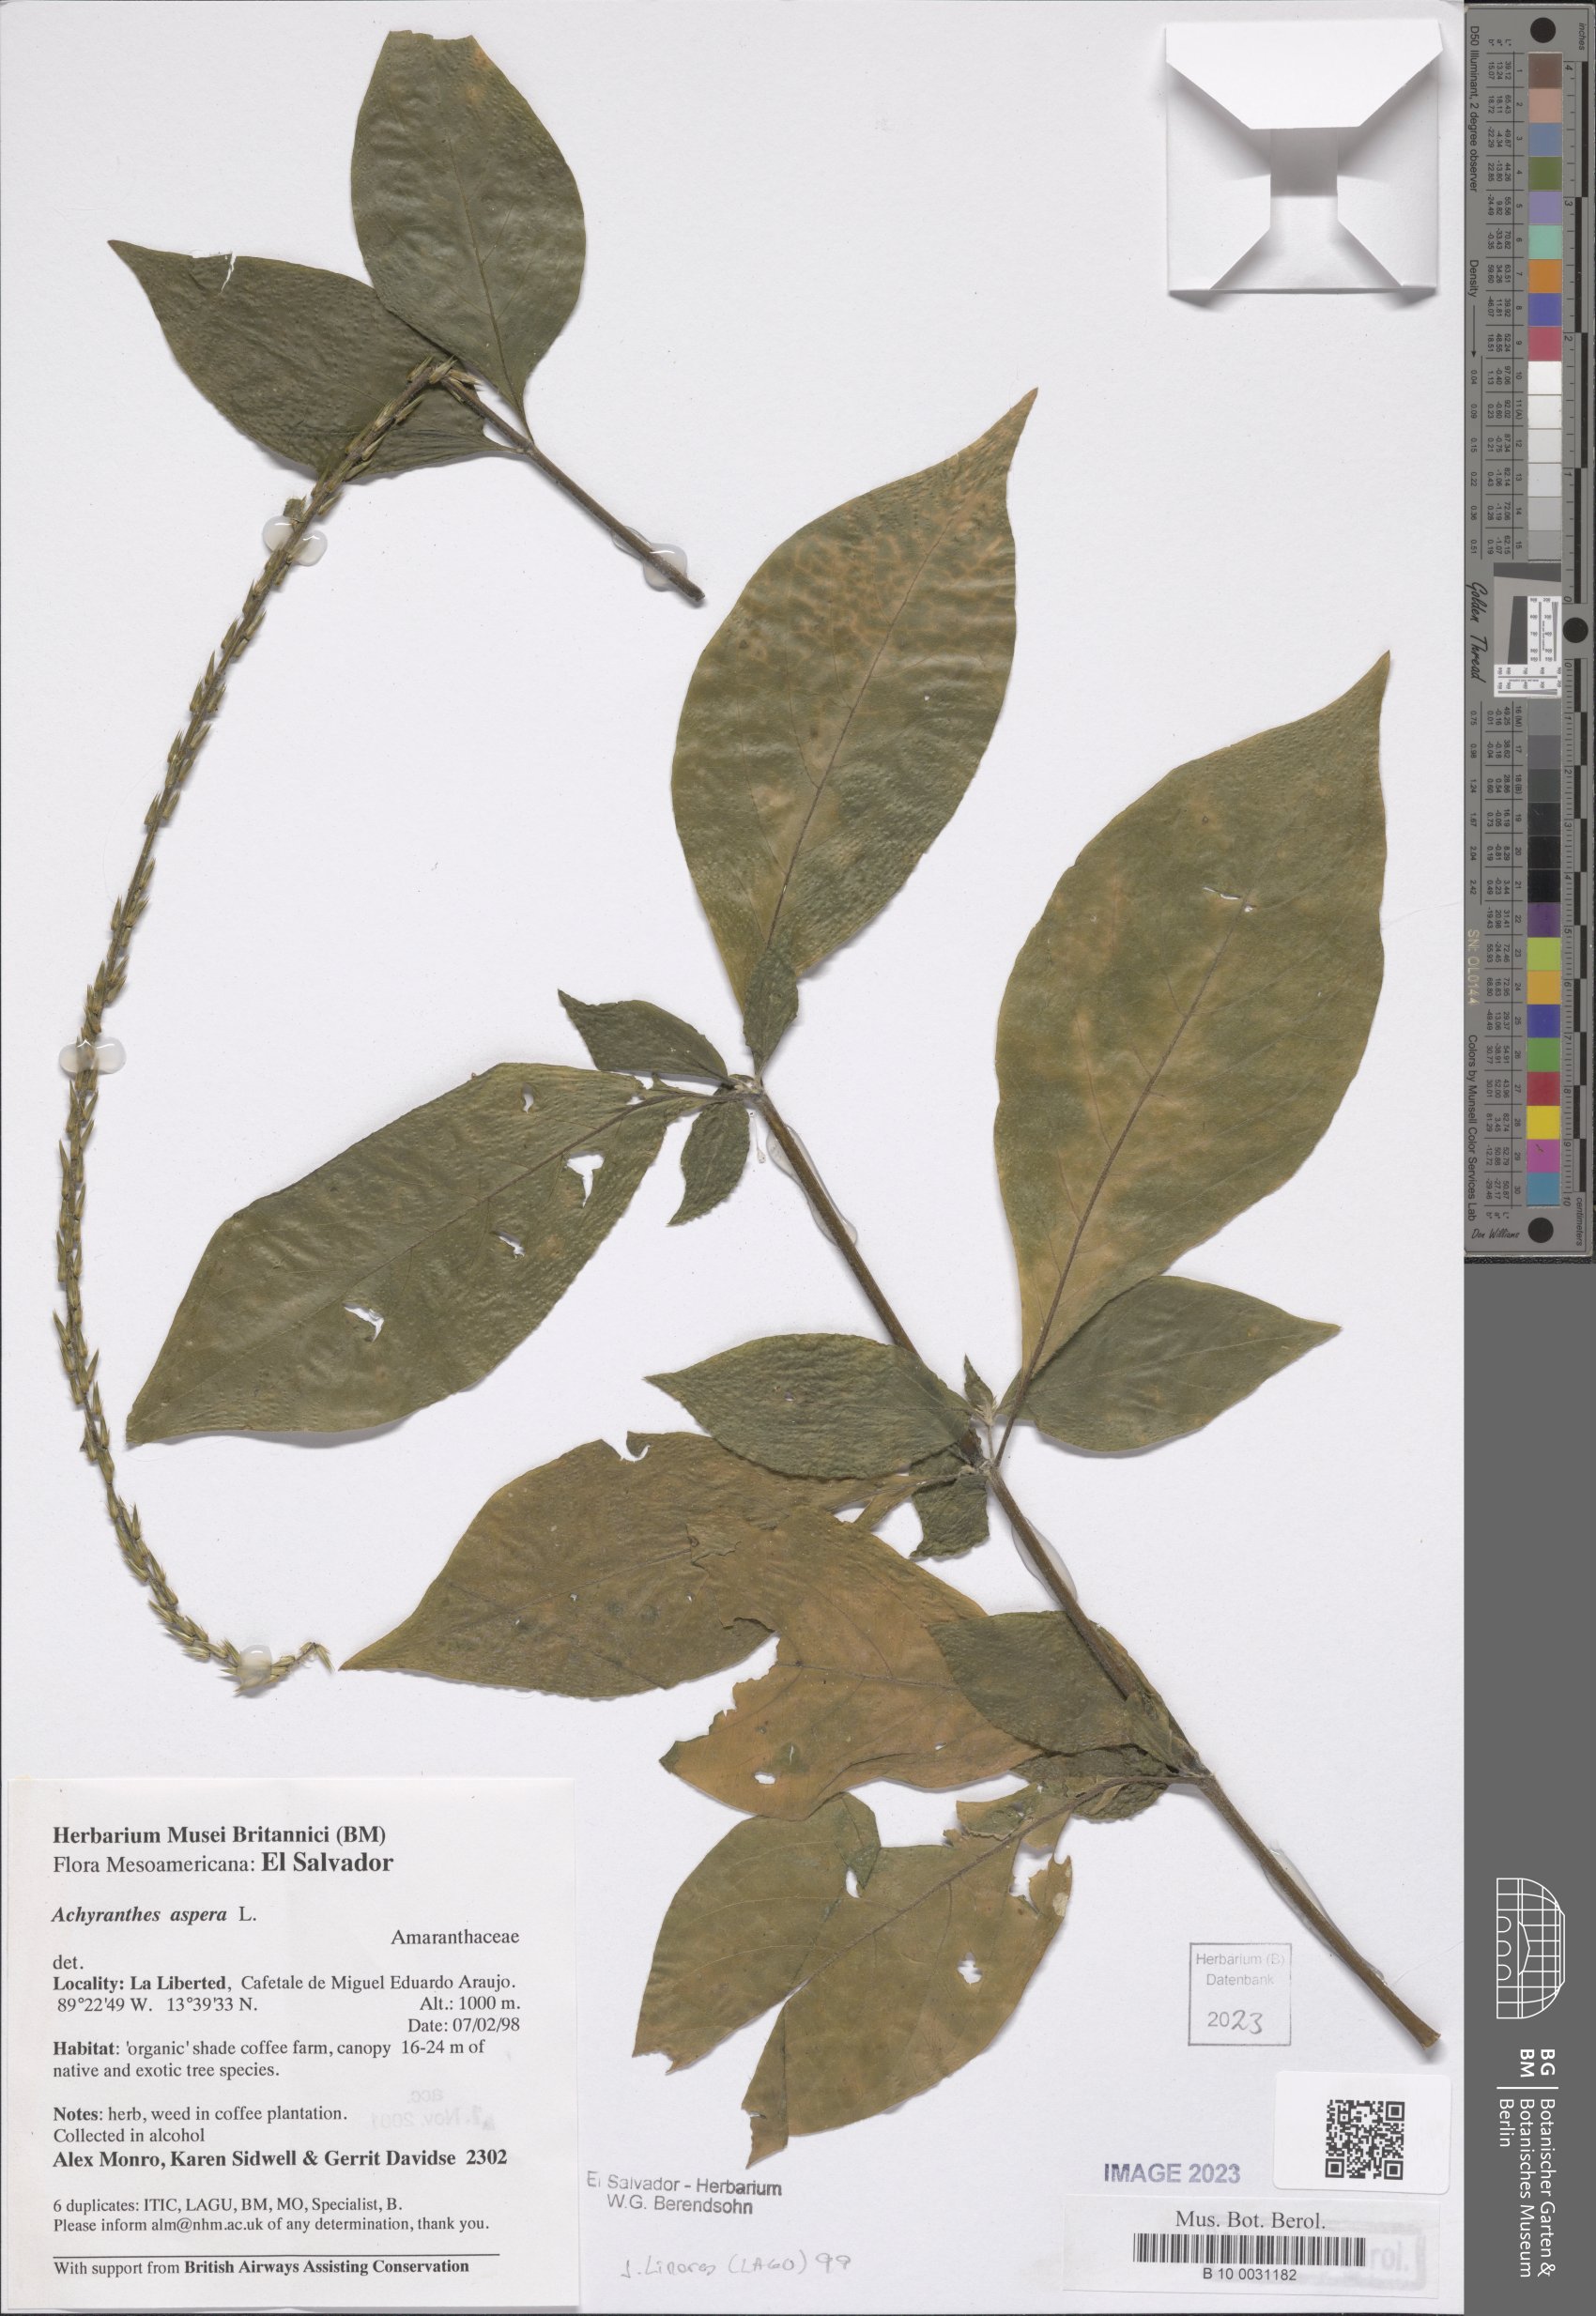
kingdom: Plantae
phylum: Tracheophyta
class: Magnoliopsida
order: Caryophyllales
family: Amaranthaceae
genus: Achyranthes
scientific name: Achyranthes aspera
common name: Devil's horsewhip
